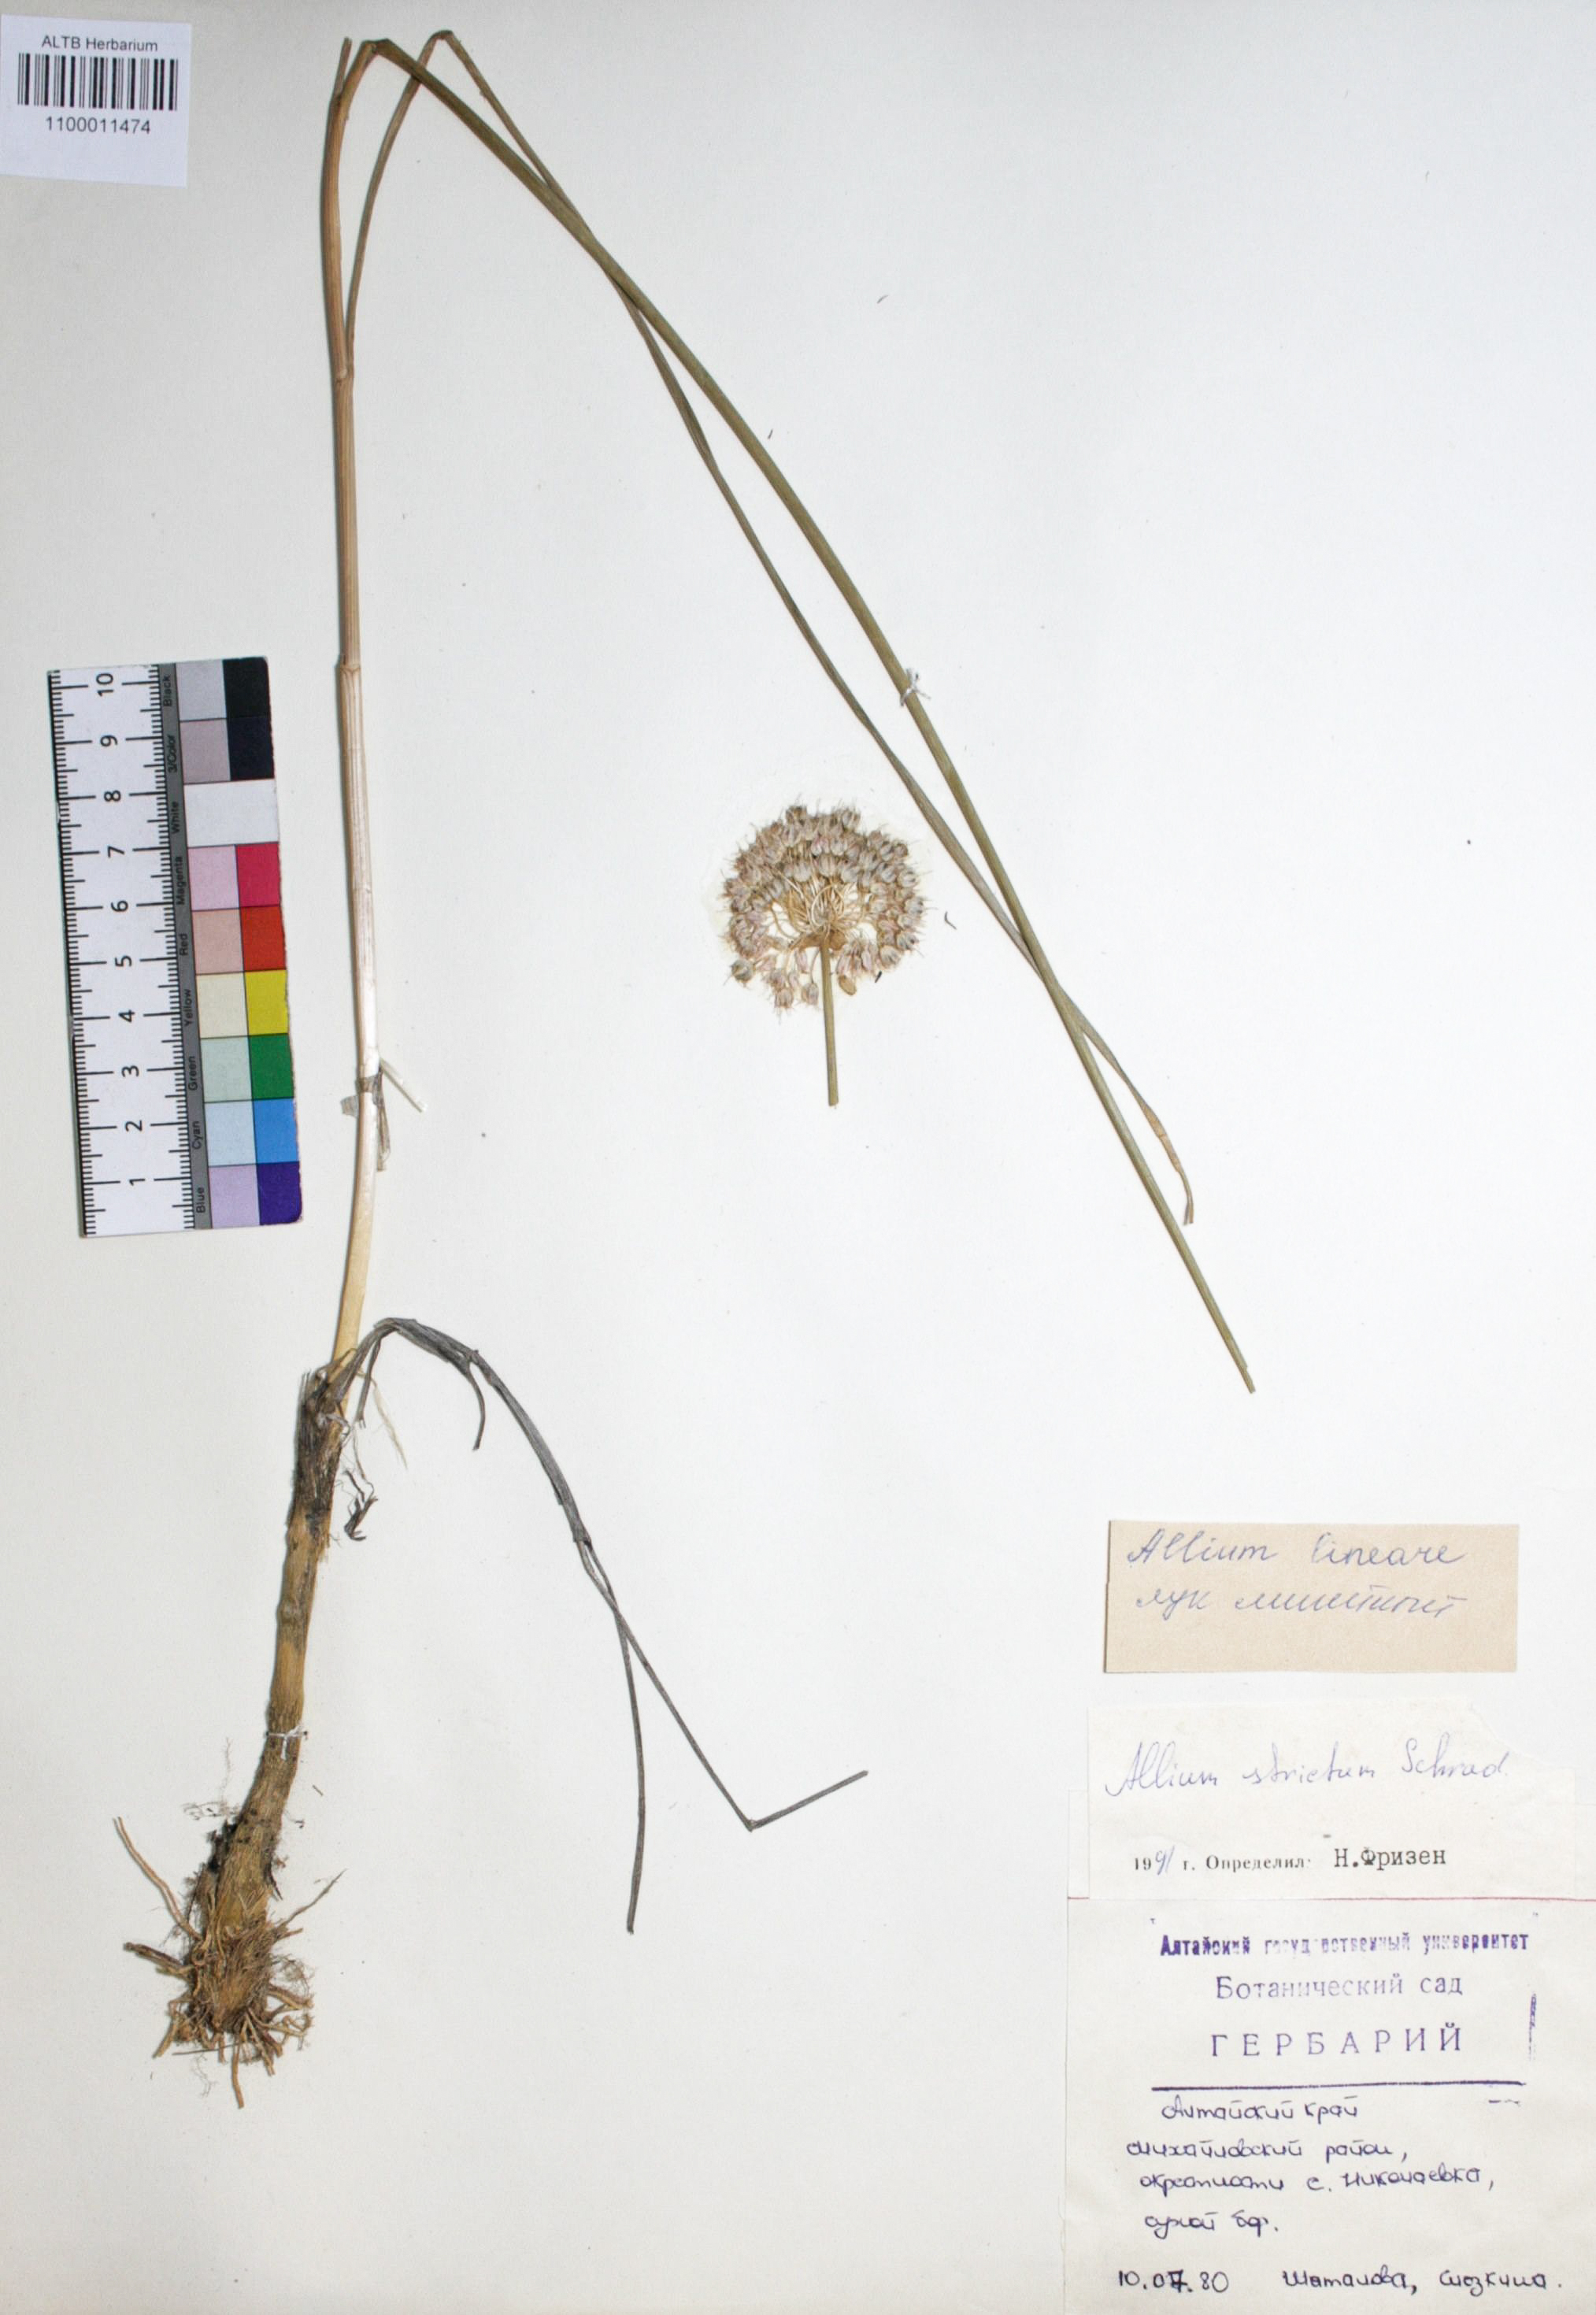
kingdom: Plantae
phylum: Tracheophyta
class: Liliopsida
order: Asparagales
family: Amaryllidaceae
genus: Allium
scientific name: Allium strictum
